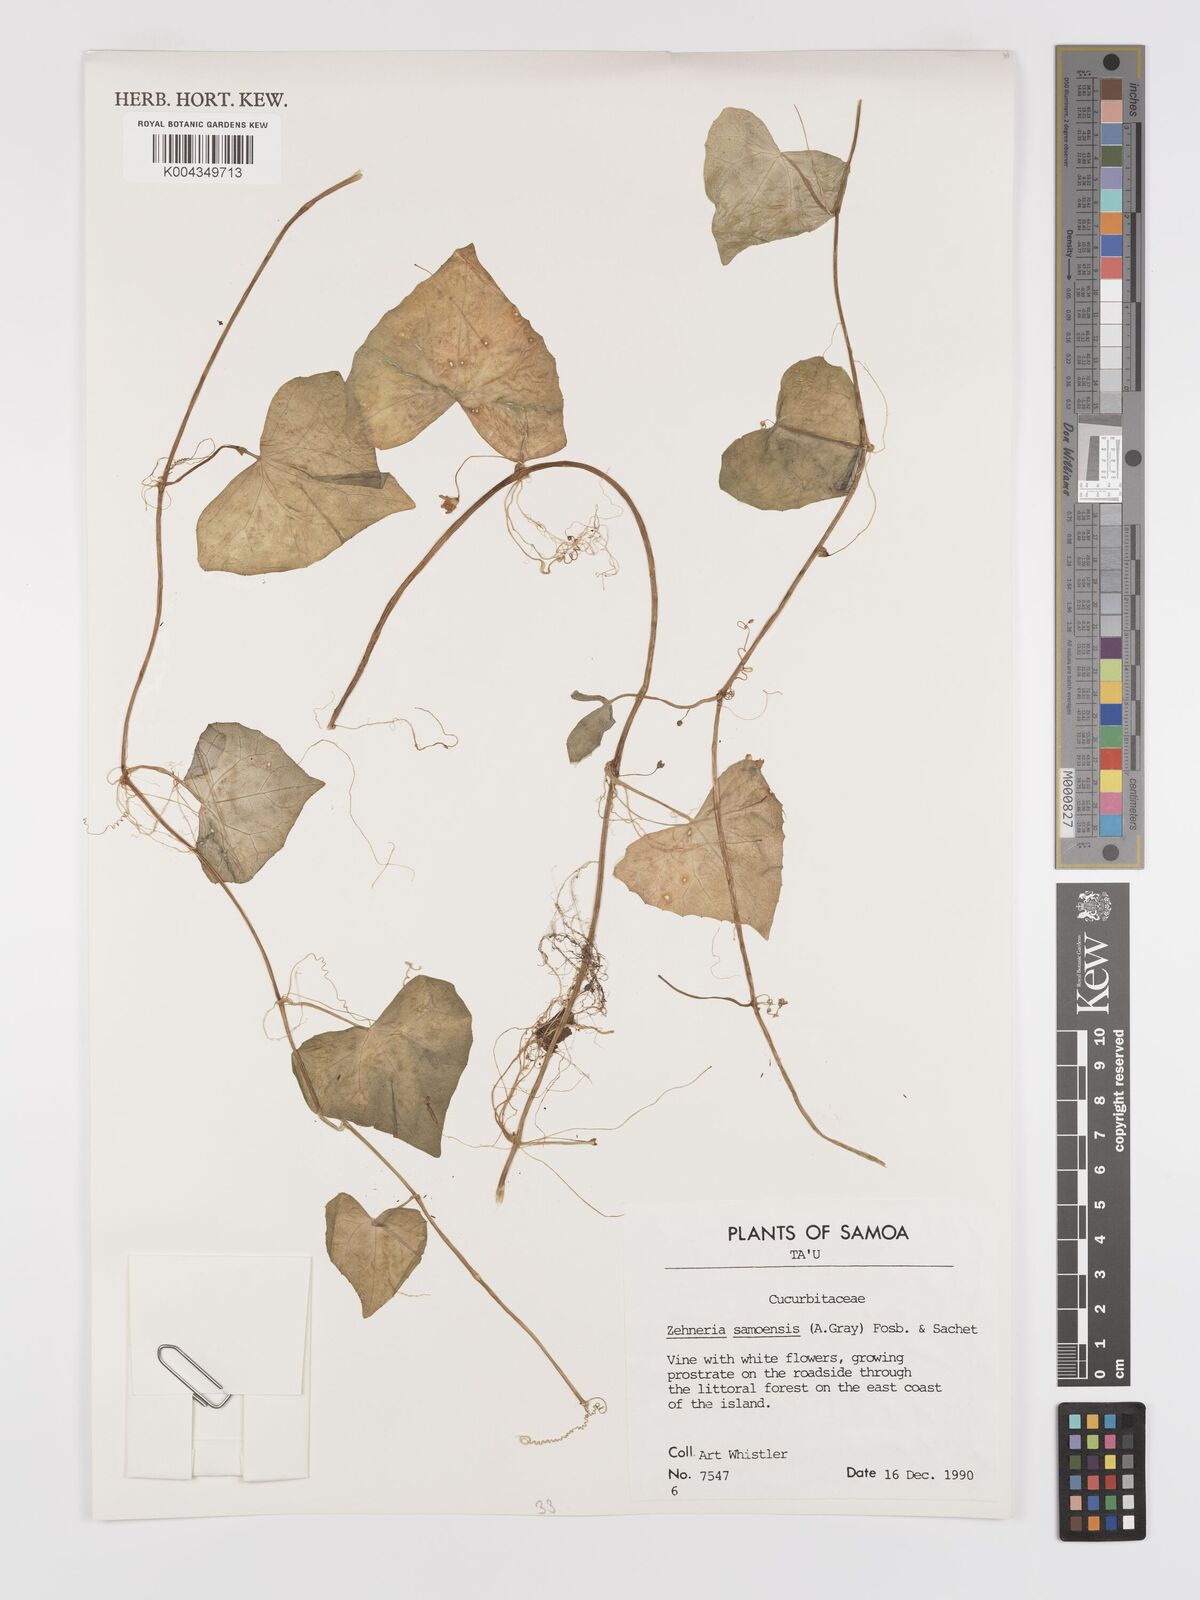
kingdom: Plantae
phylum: Tracheophyta
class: Magnoliopsida
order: Cucurbitales
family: Cucurbitaceae
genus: Zehneria
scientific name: Zehneria mucronata
